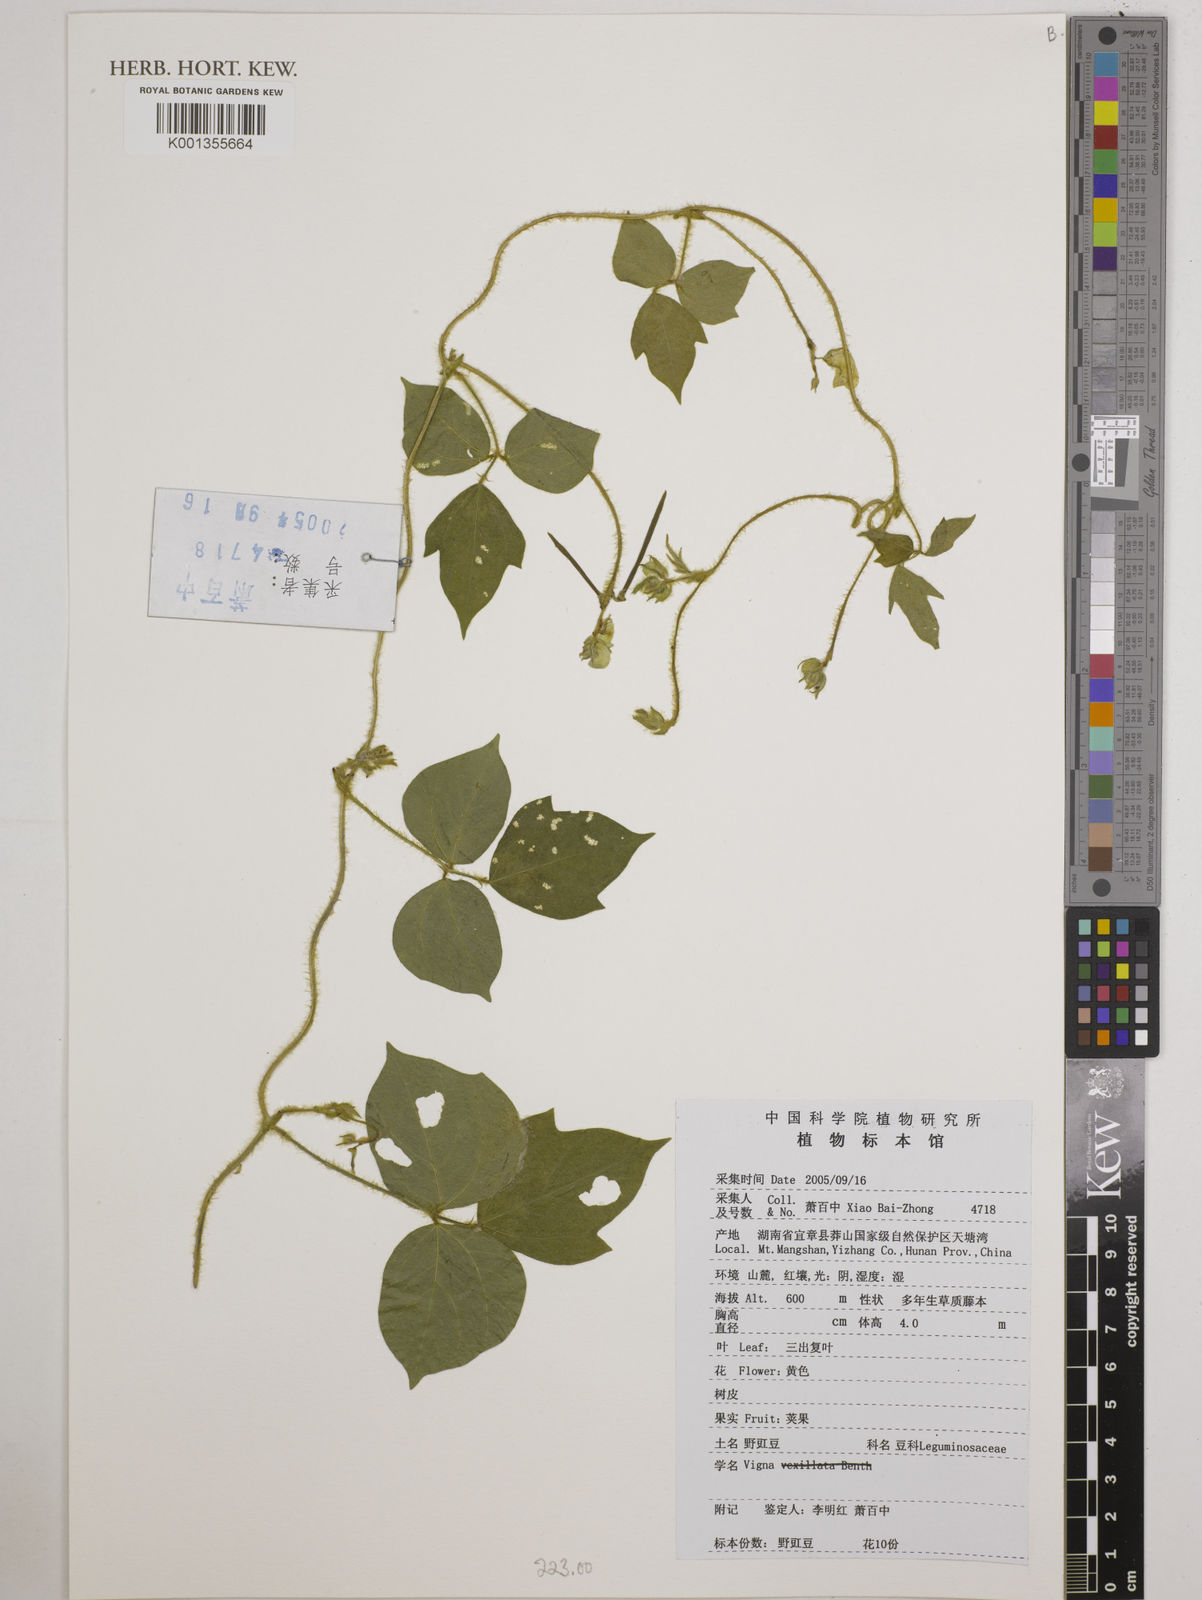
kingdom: Plantae
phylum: Tracheophyta
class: Magnoliopsida
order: Fabales
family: Fabaceae
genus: Vigna
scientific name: Vigna
